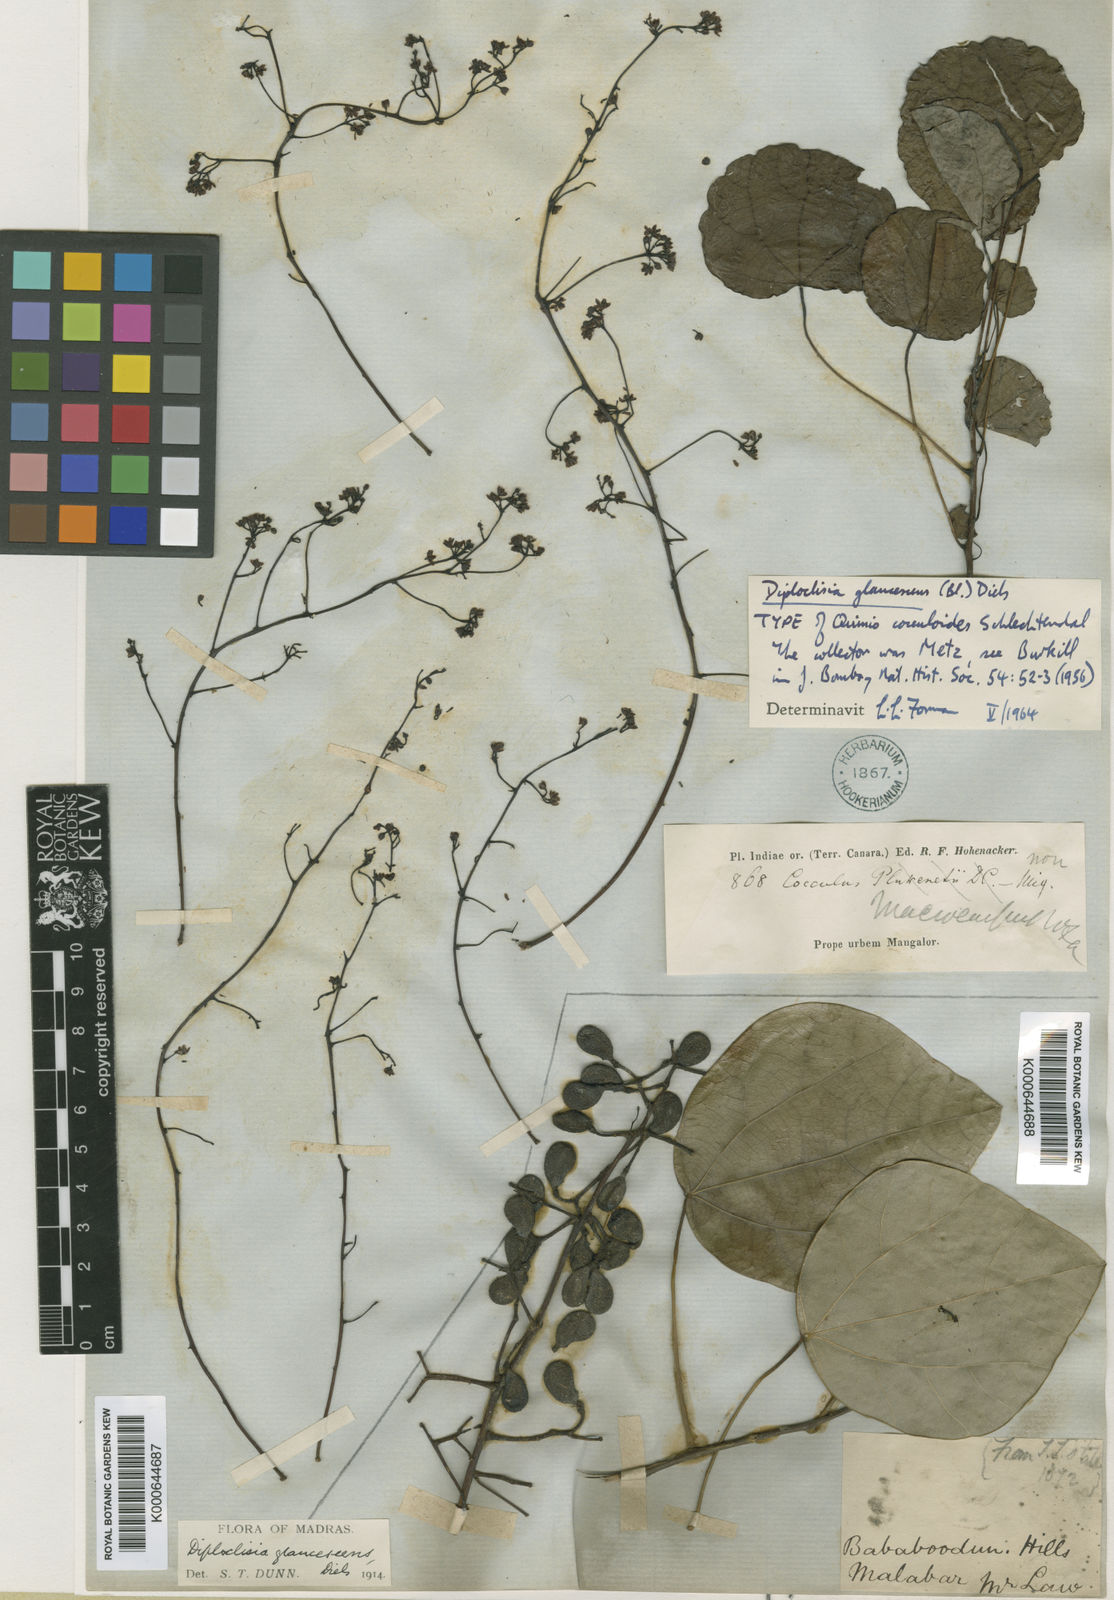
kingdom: Plantae
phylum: Tracheophyta
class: Magnoliopsida
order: Ranunculales
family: Menispermaceae
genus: Diploclisia
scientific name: Diploclisia glaucescens
